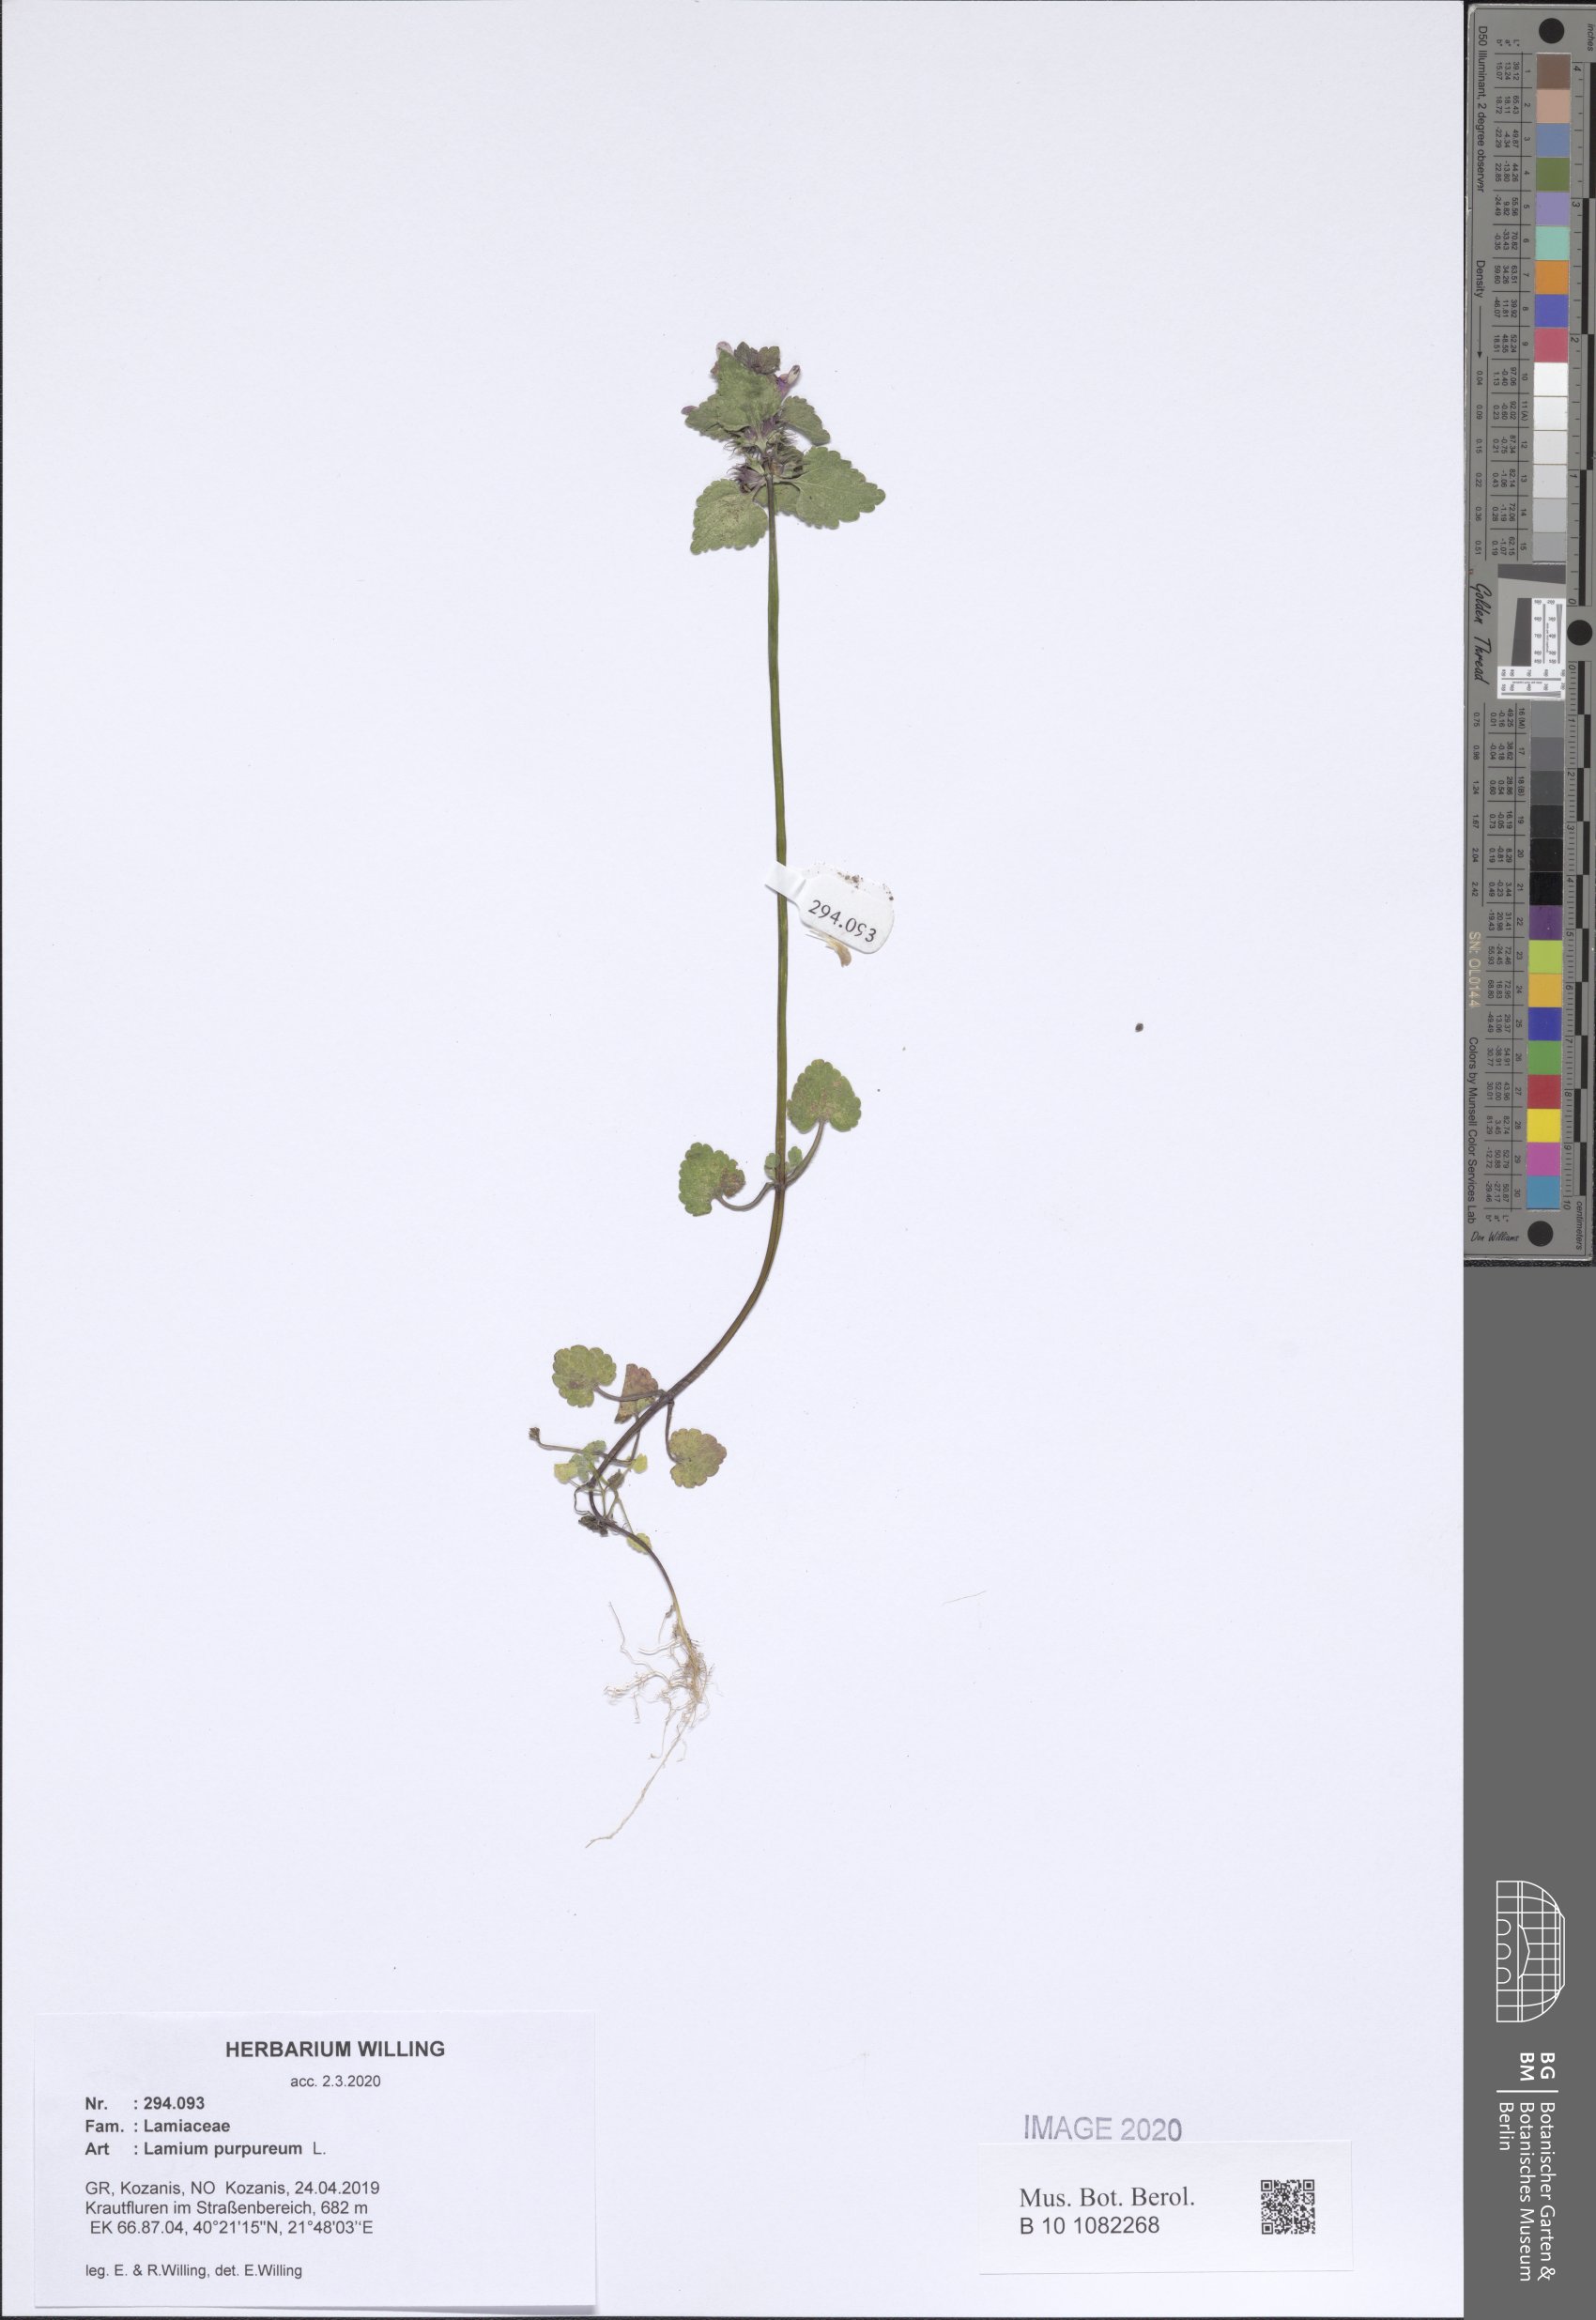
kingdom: Plantae
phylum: Tracheophyta
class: Magnoliopsida
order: Lamiales
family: Lamiaceae
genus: Lamium
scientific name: Lamium purpureum
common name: Red dead-nettle
